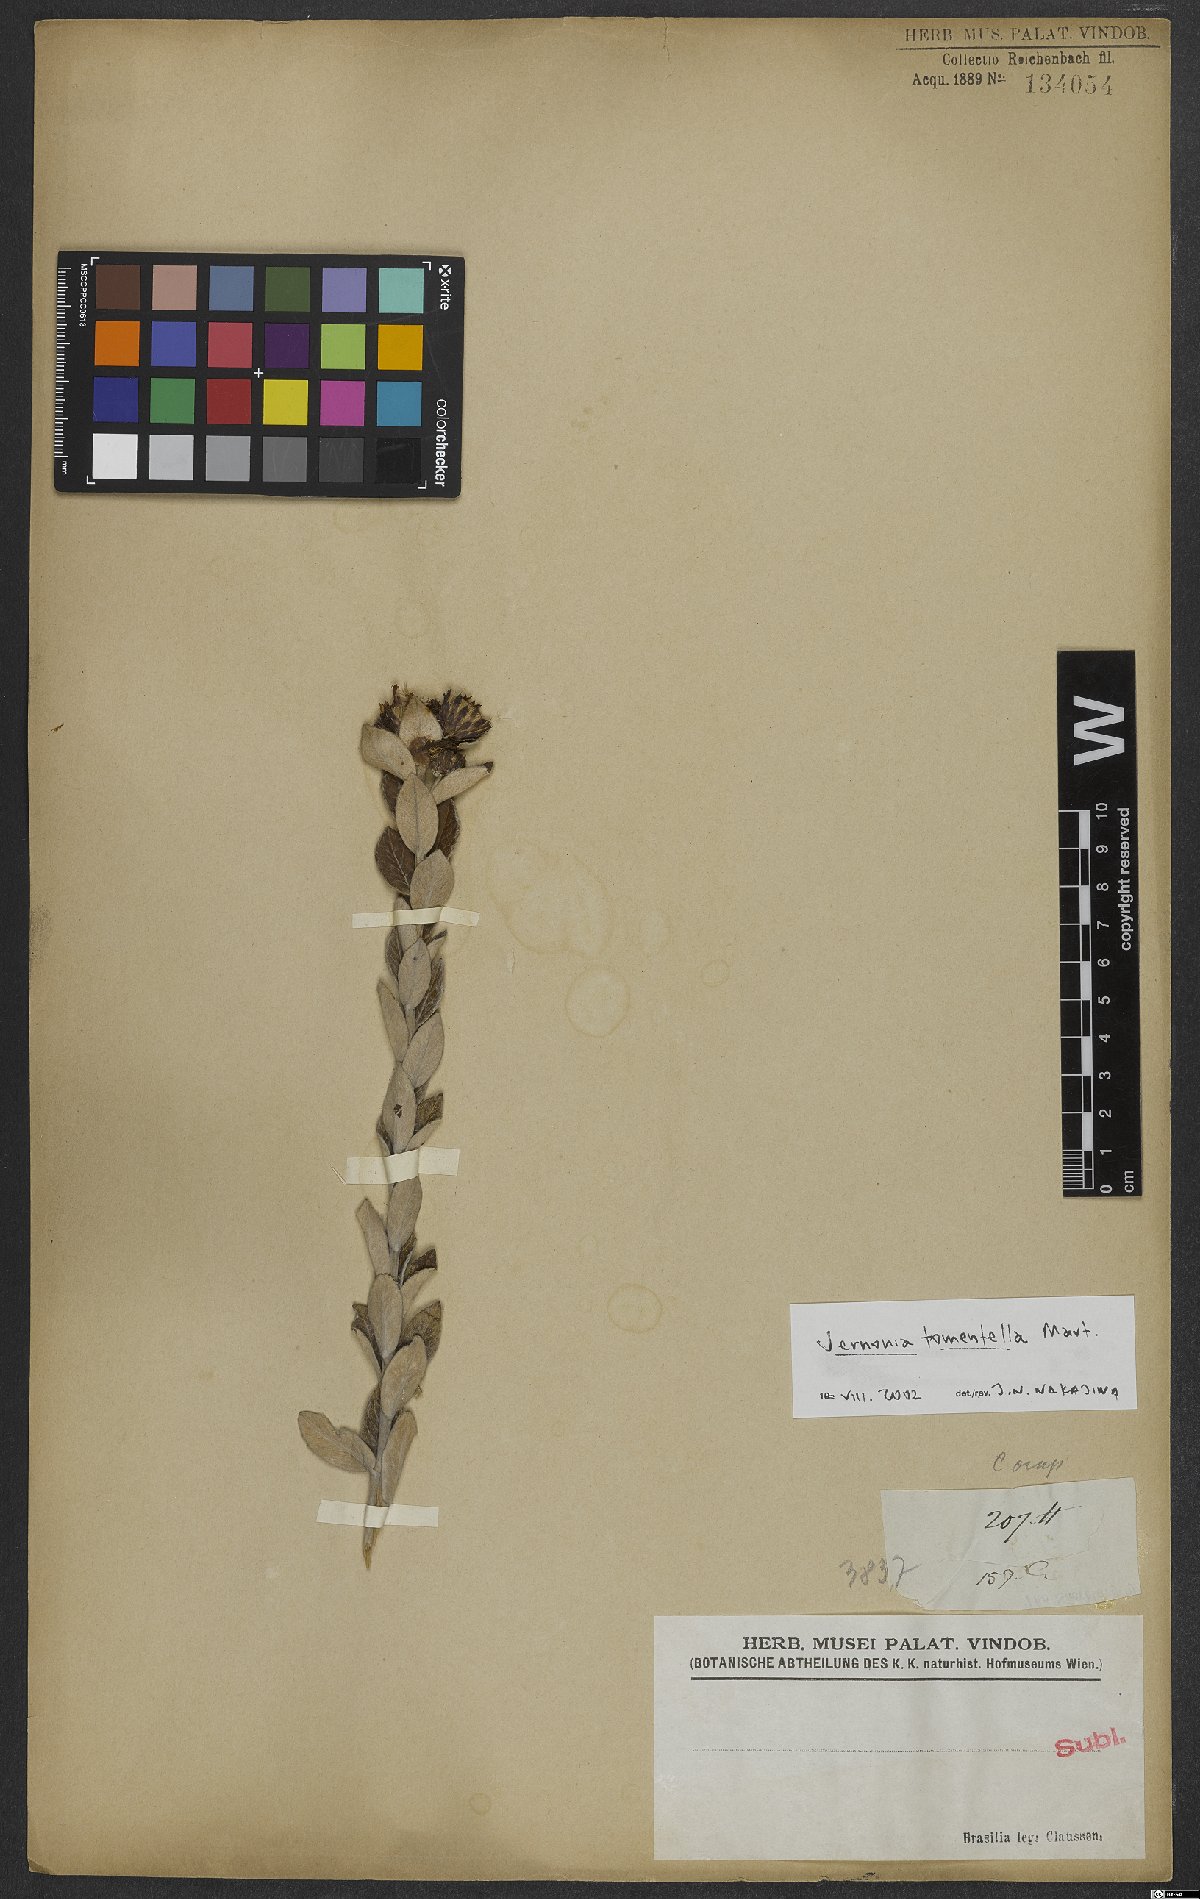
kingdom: Plantae
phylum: Tracheophyta
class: Magnoliopsida
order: Asterales
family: Asteraceae
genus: Lessingianthus
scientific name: Lessingianthus tomentellus
